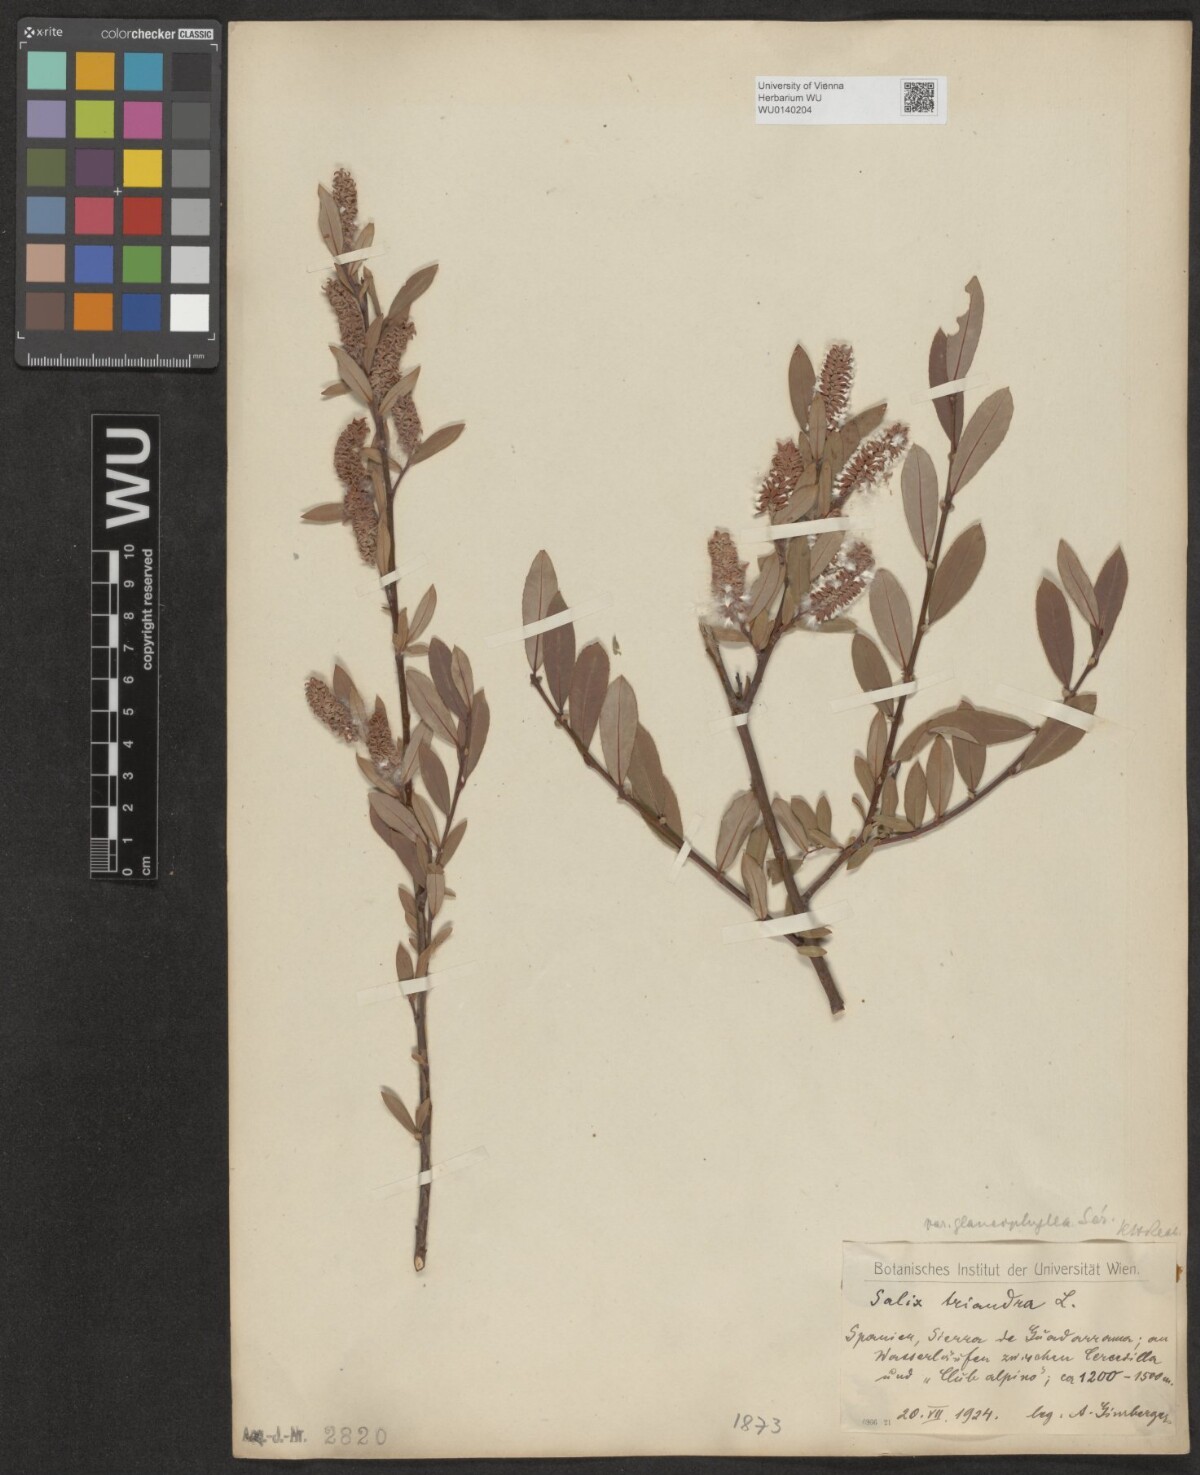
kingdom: Plantae
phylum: Tracheophyta
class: Magnoliopsida
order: Malpighiales
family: Salicaceae
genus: Salix
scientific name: Salix triandra
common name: Almond willow
